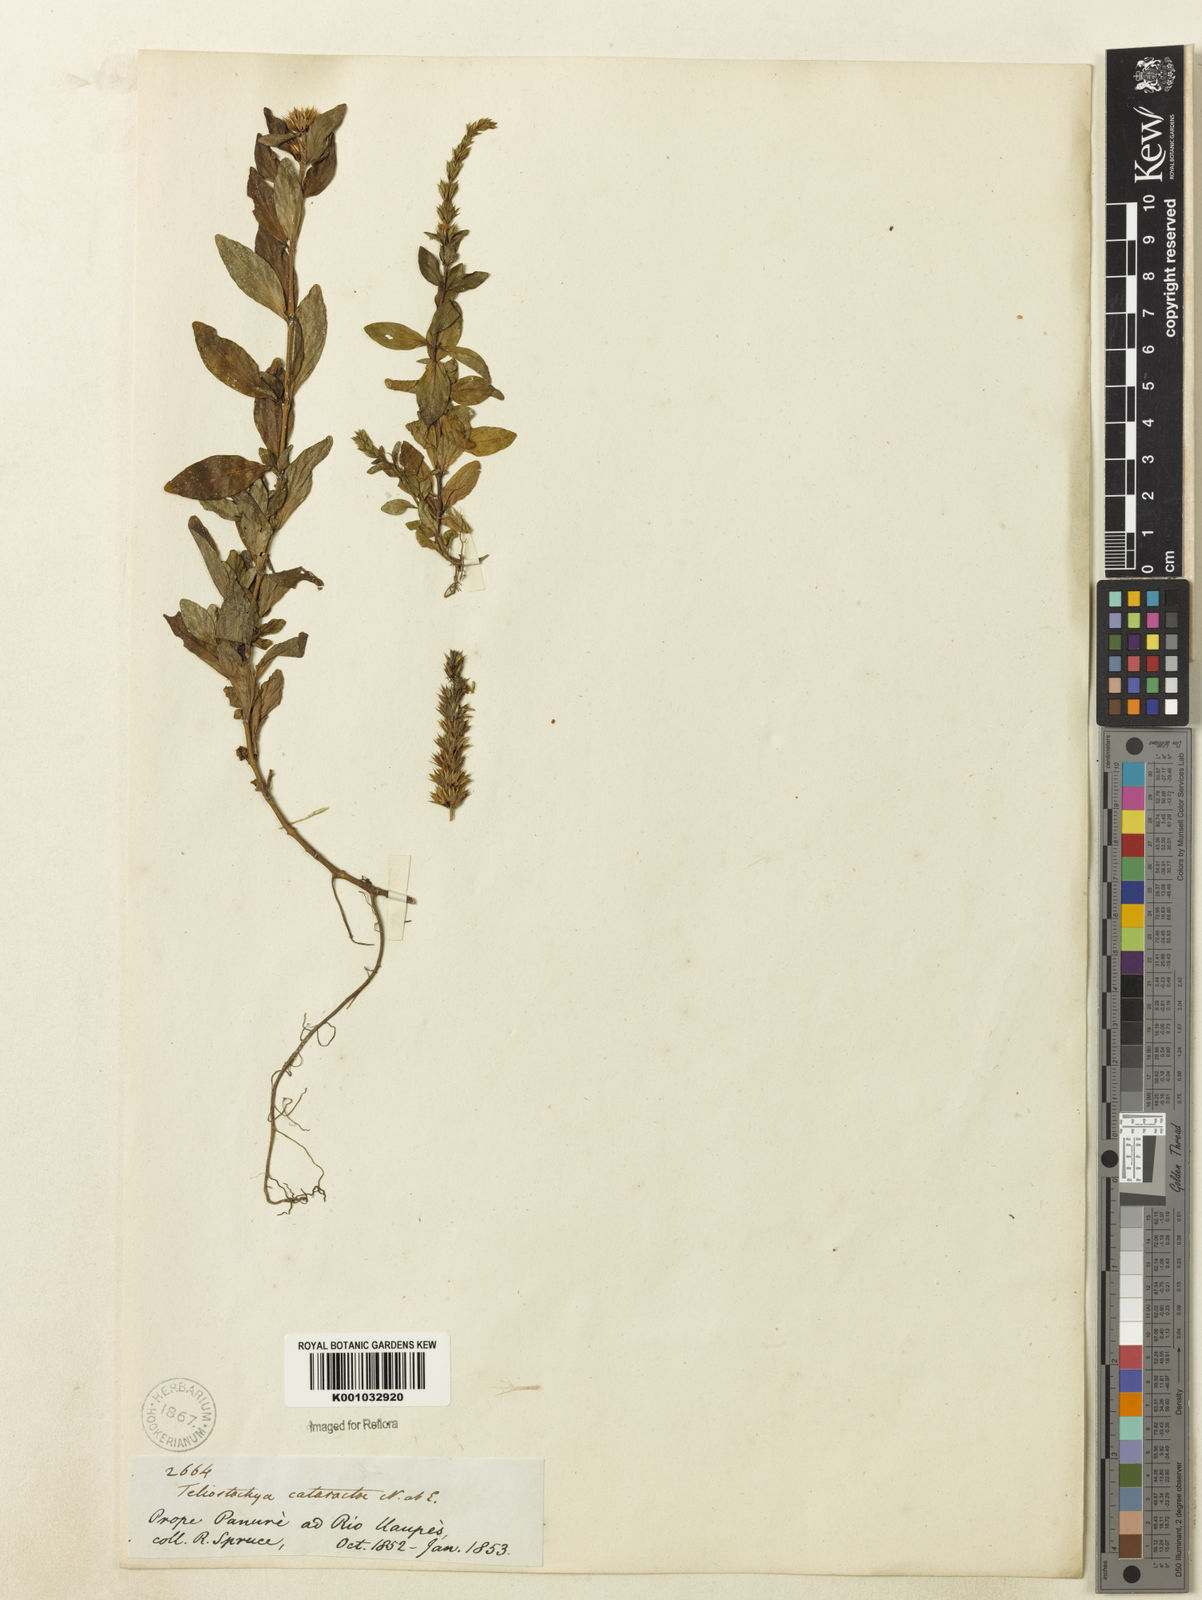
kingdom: Plantae
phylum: Tracheophyta
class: Magnoliopsida
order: Lamiales
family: Acanthaceae
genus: Lepidagathis
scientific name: Lepidagathis alopecuroidea
